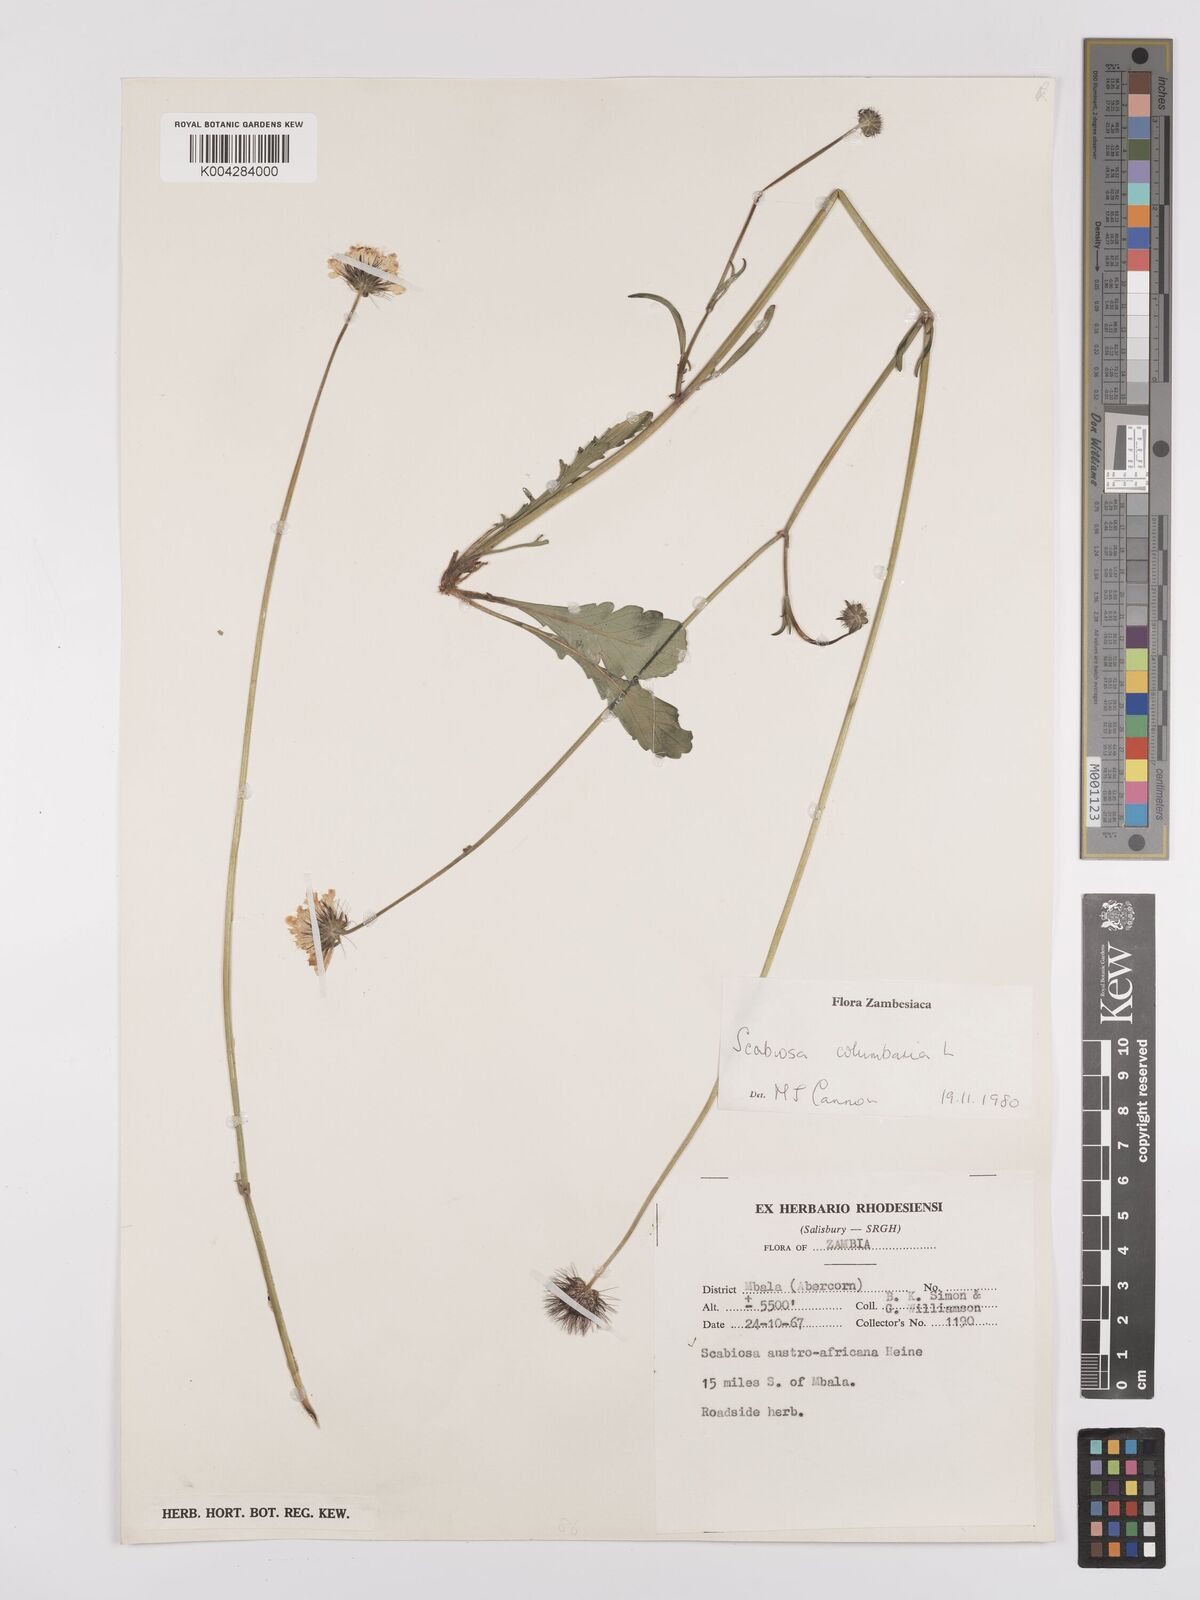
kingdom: Plantae
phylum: Tracheophyta
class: Magnoliopsida
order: Dipsacales
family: Caprifoliaceae
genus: Scabiosa
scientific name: Scabiosa austroafricana
